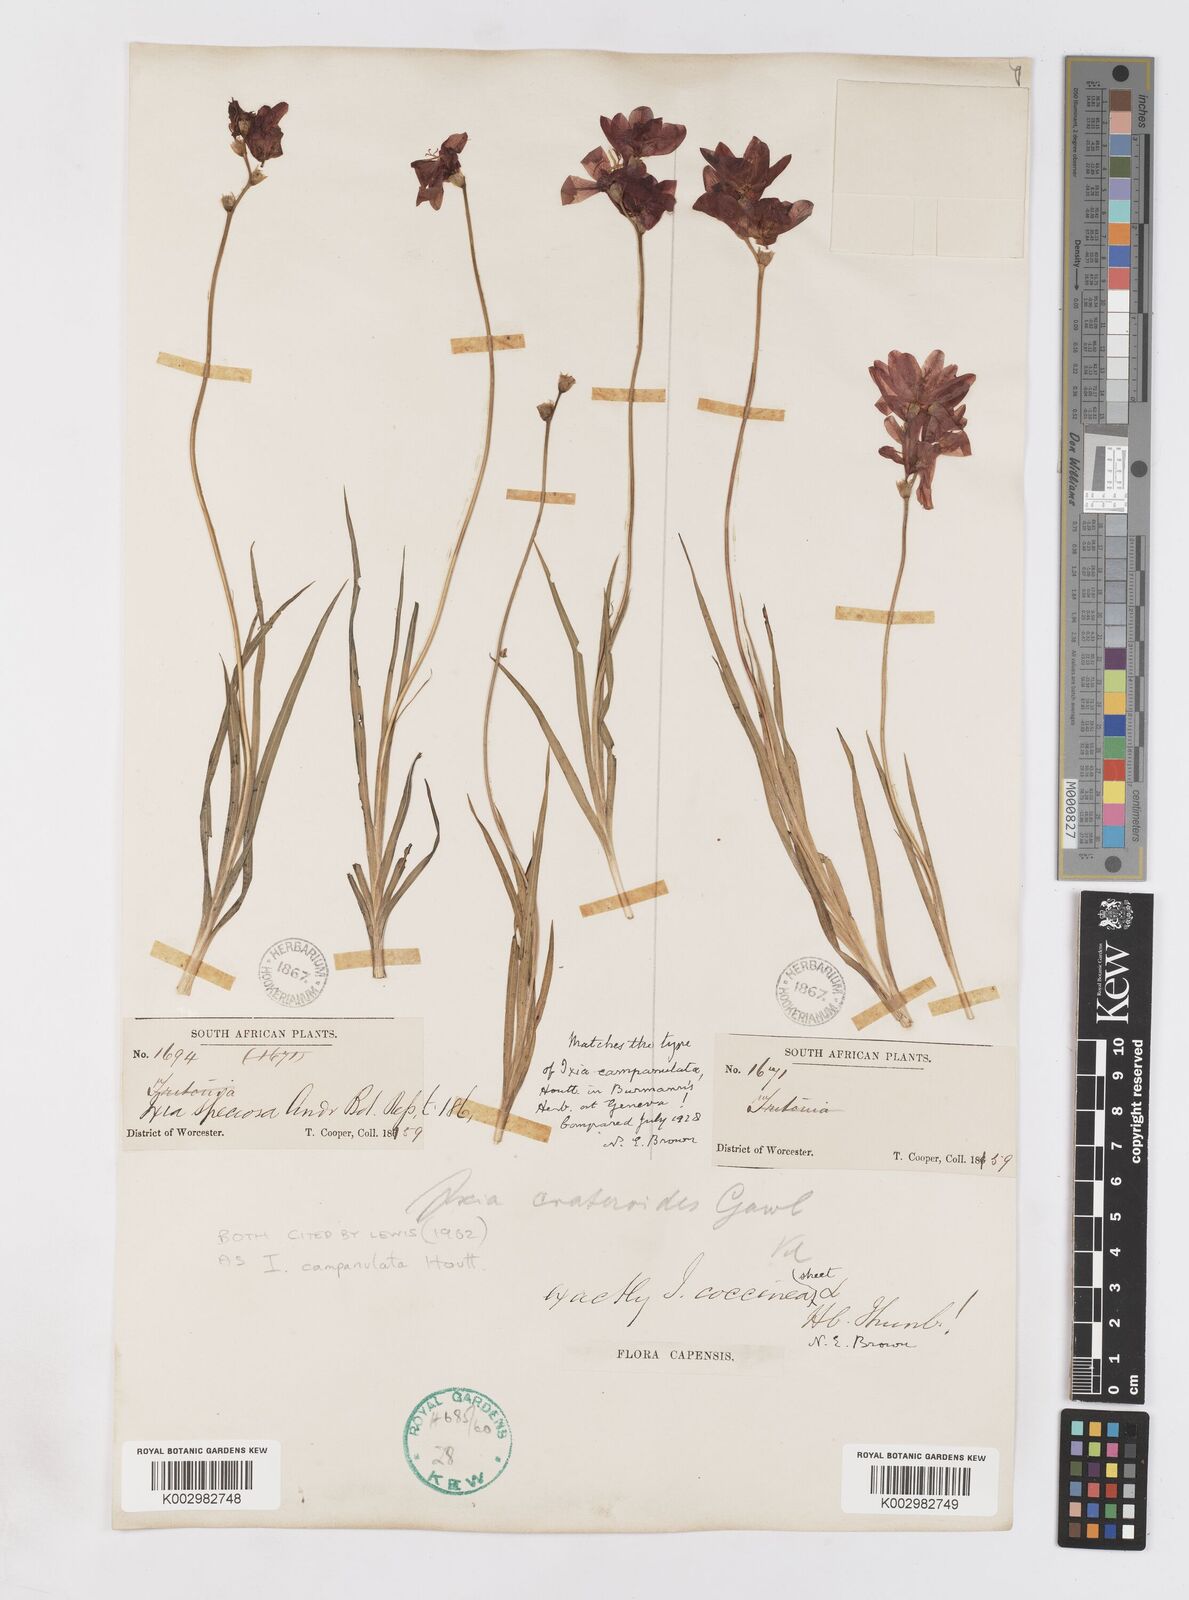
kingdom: Plantae
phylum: Tracheophyta
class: Liliopsida
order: Asparagales
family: Iridaceae
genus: Ixia
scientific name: Ixia campanulata
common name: Red corn-lily
